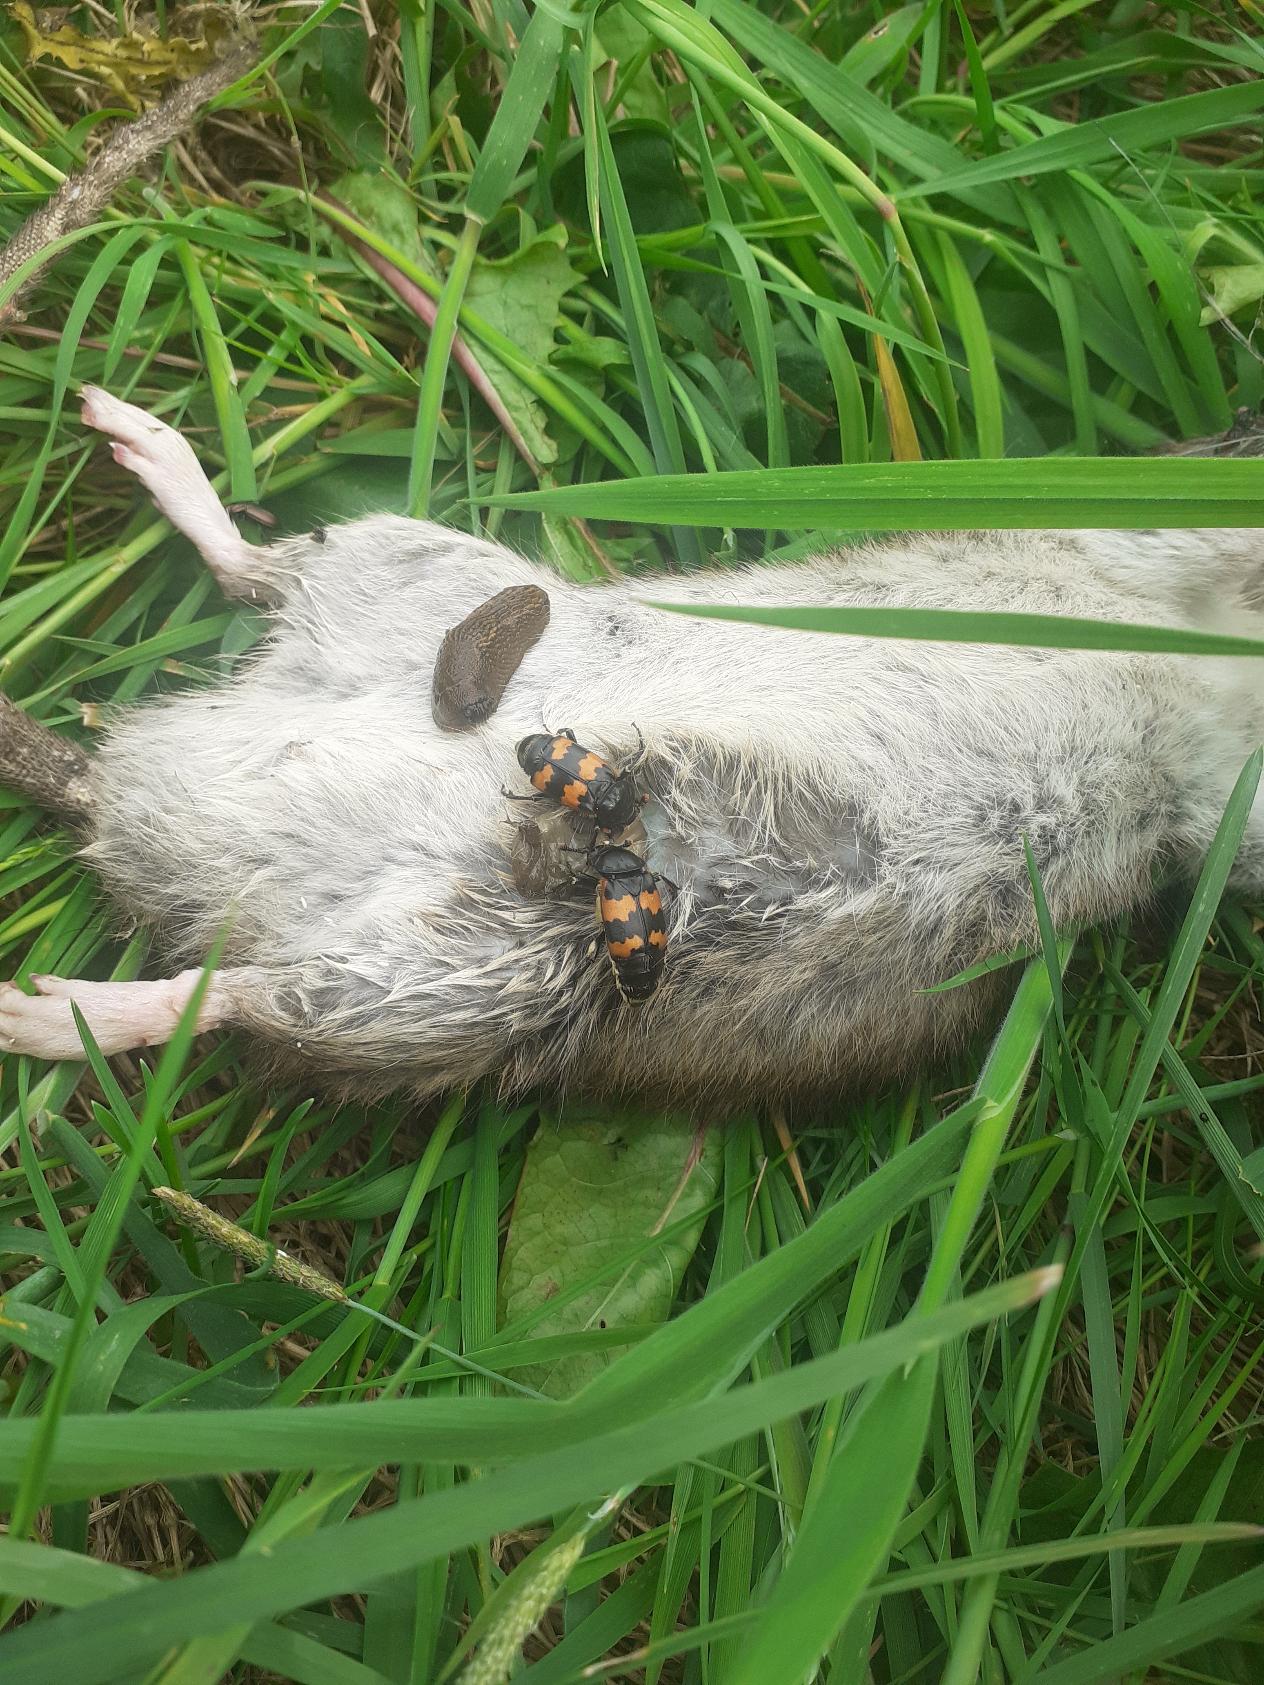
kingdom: Animalia
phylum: Arthropoda
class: Insecta
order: Coleoptera
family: Staphylinidae
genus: Nicrophorus
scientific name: Nicrophorus vespillo
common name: Krumbenet ådselgraver
